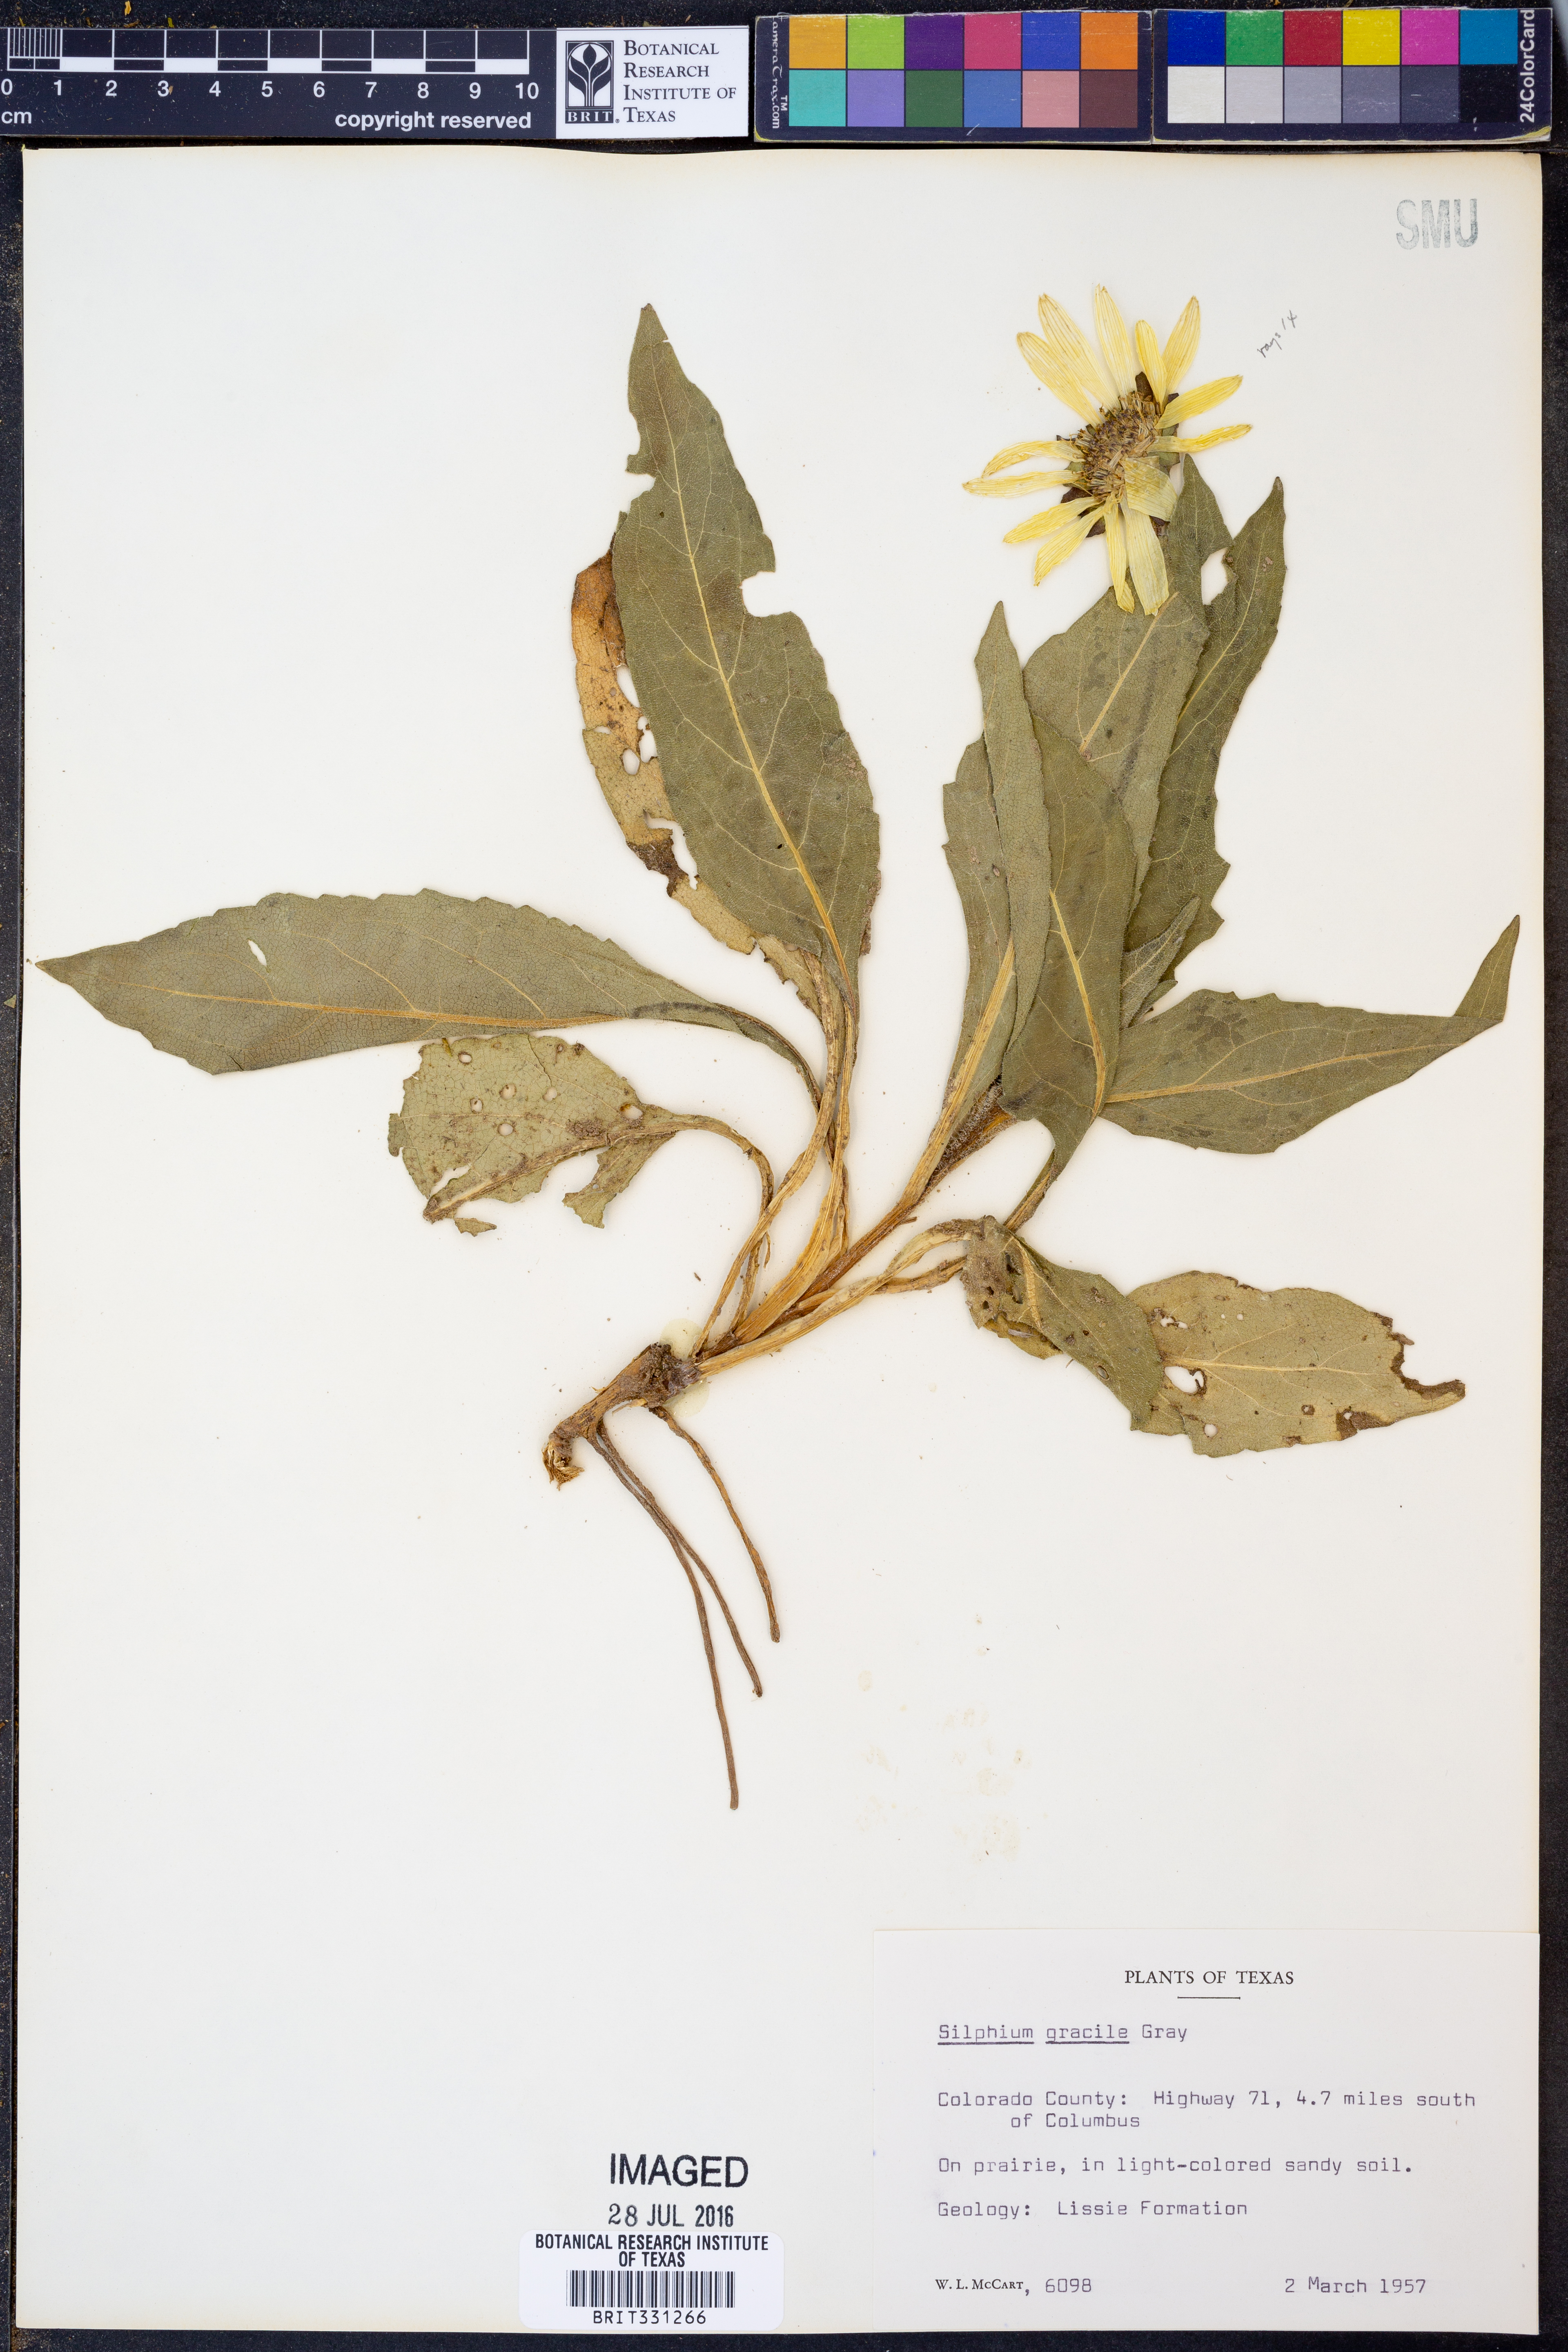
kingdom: Plantae
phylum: Tracheophyta
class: Magnoliopsida
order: Asterales
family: Asteraceae
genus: Silphium
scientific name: Silphium radula
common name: Roughleaf rosinweed
